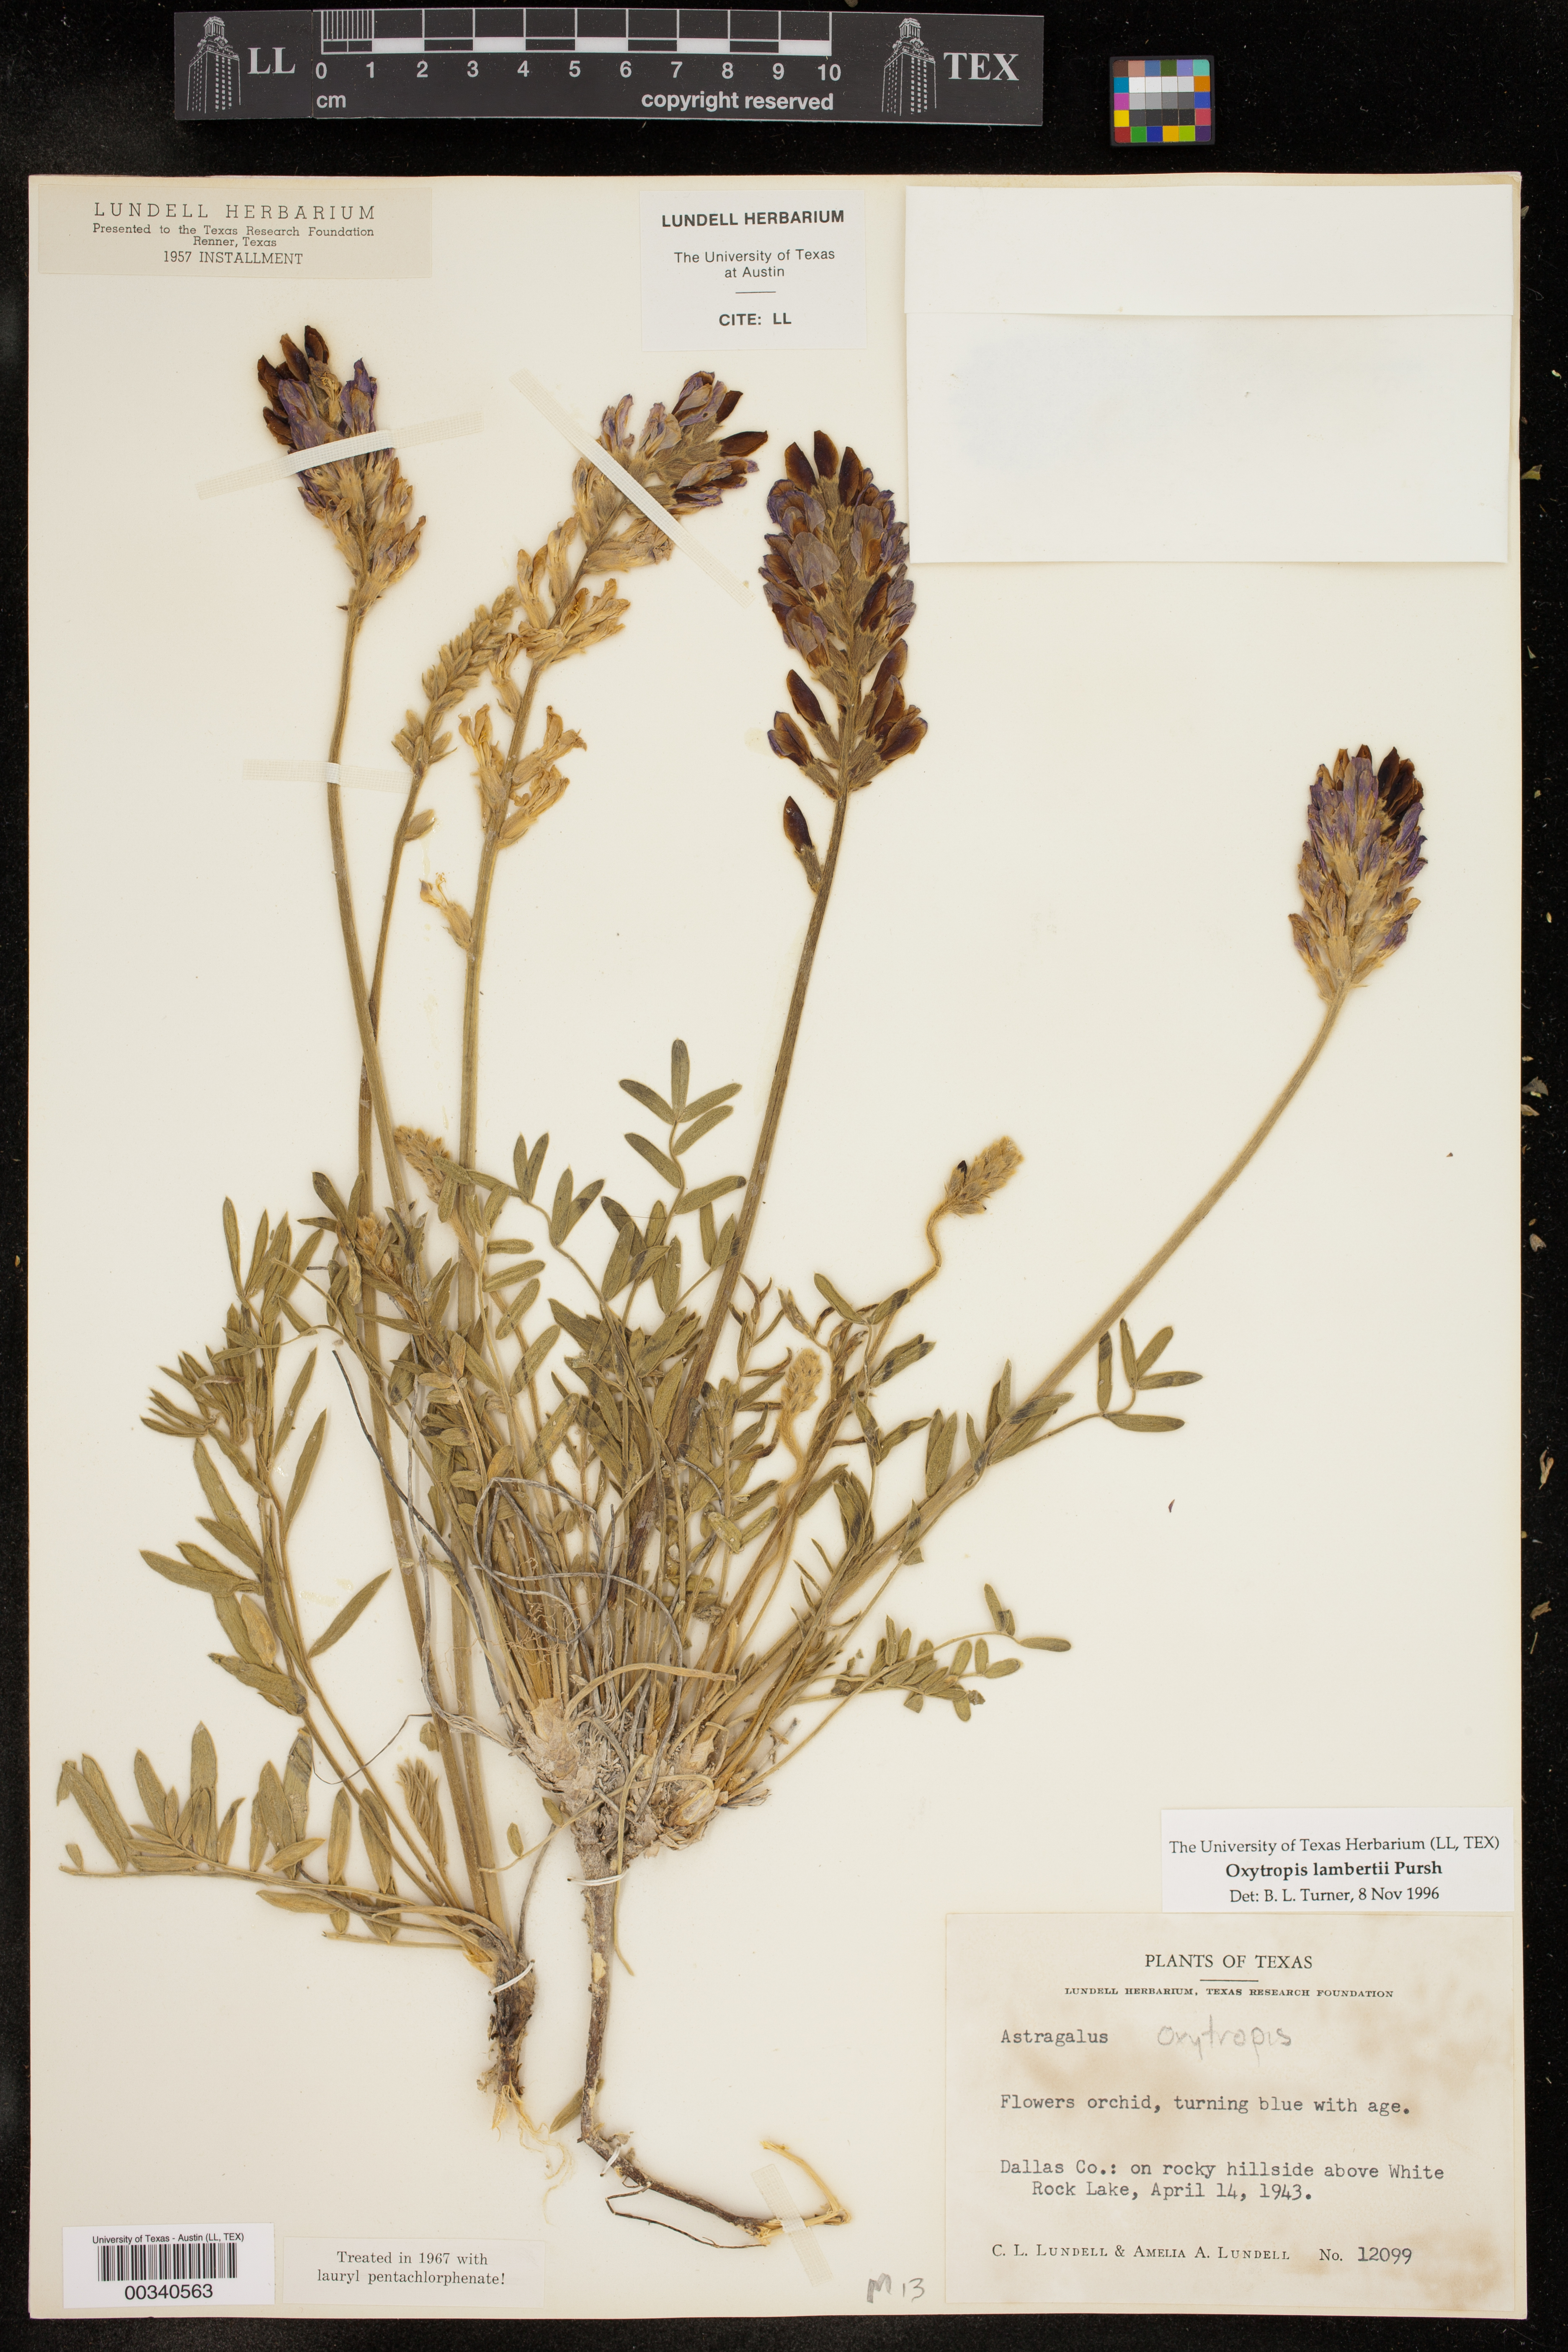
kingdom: Plantae
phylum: Tracheophyta
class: Magnoliopsida
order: Fabales
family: Fabaceae
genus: Oxytropis
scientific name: Oxytropis lambertii
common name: Purple locoweed
